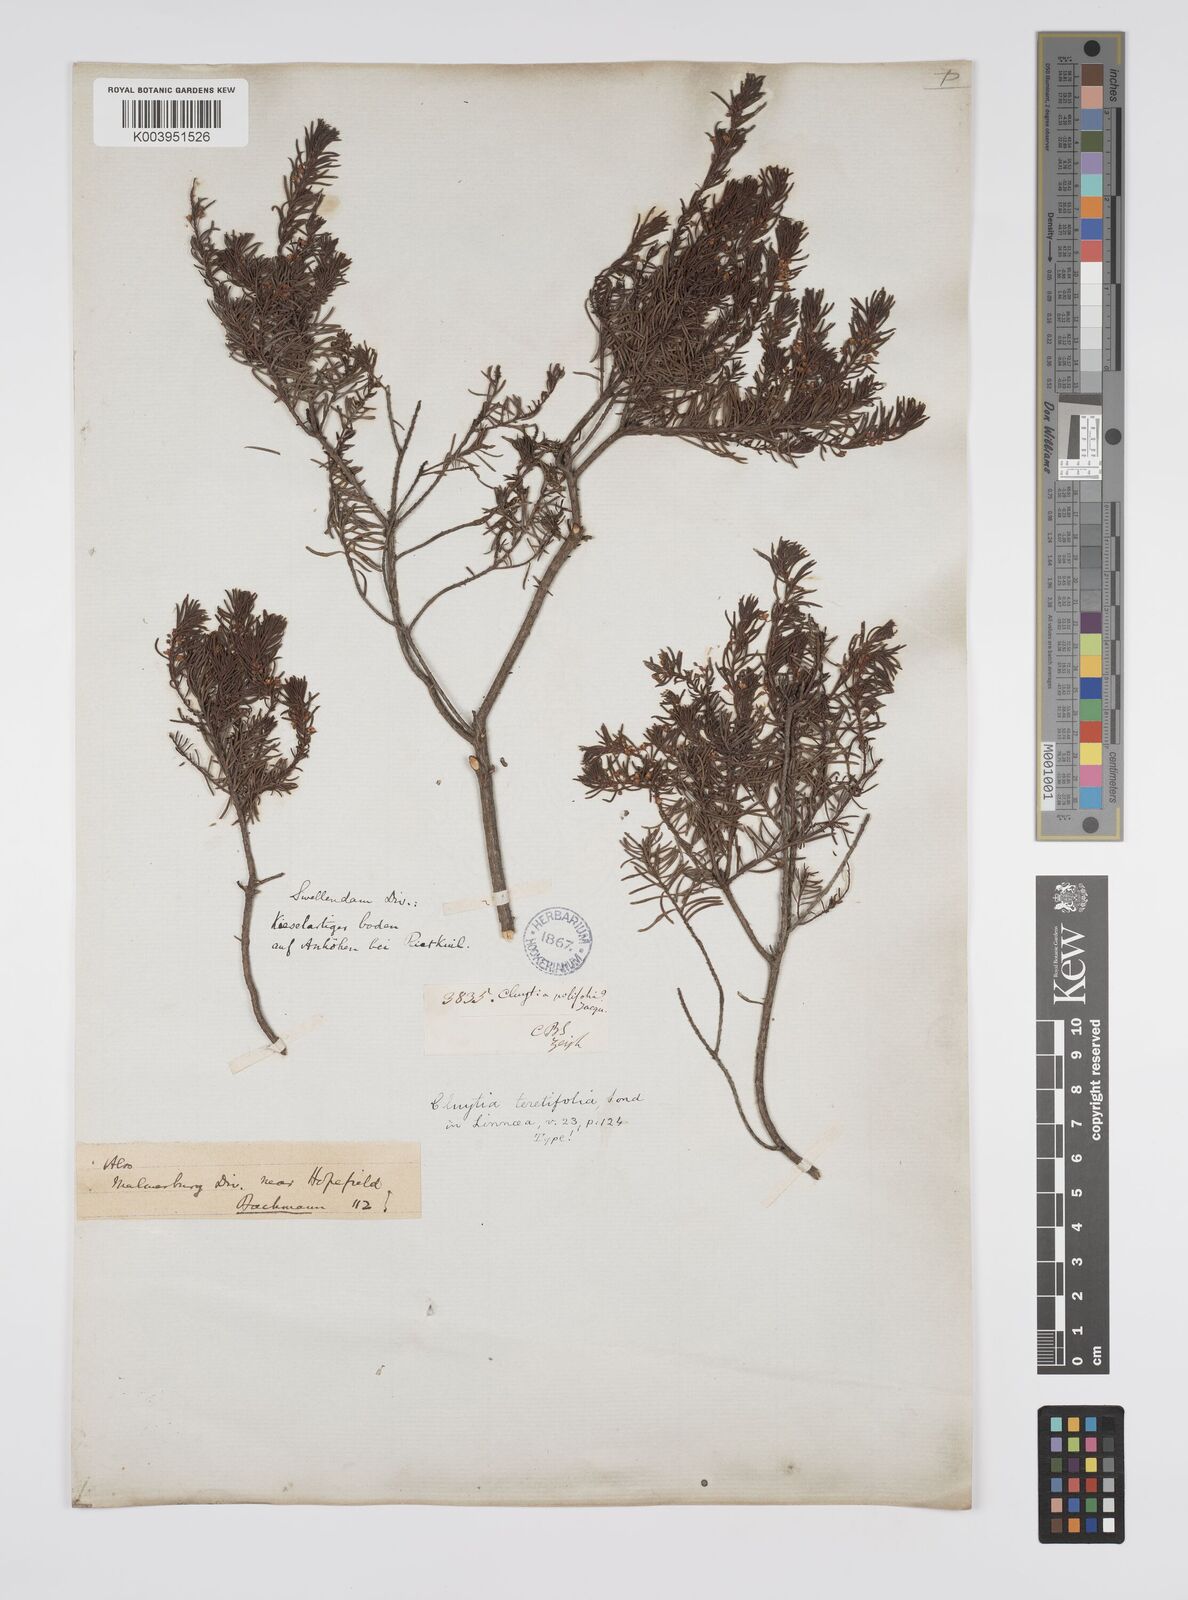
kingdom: Plantae
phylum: Tracheophyta
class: Magnoliopsida
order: Malpighiales
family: Peraceae
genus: Clutia
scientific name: Clutia
